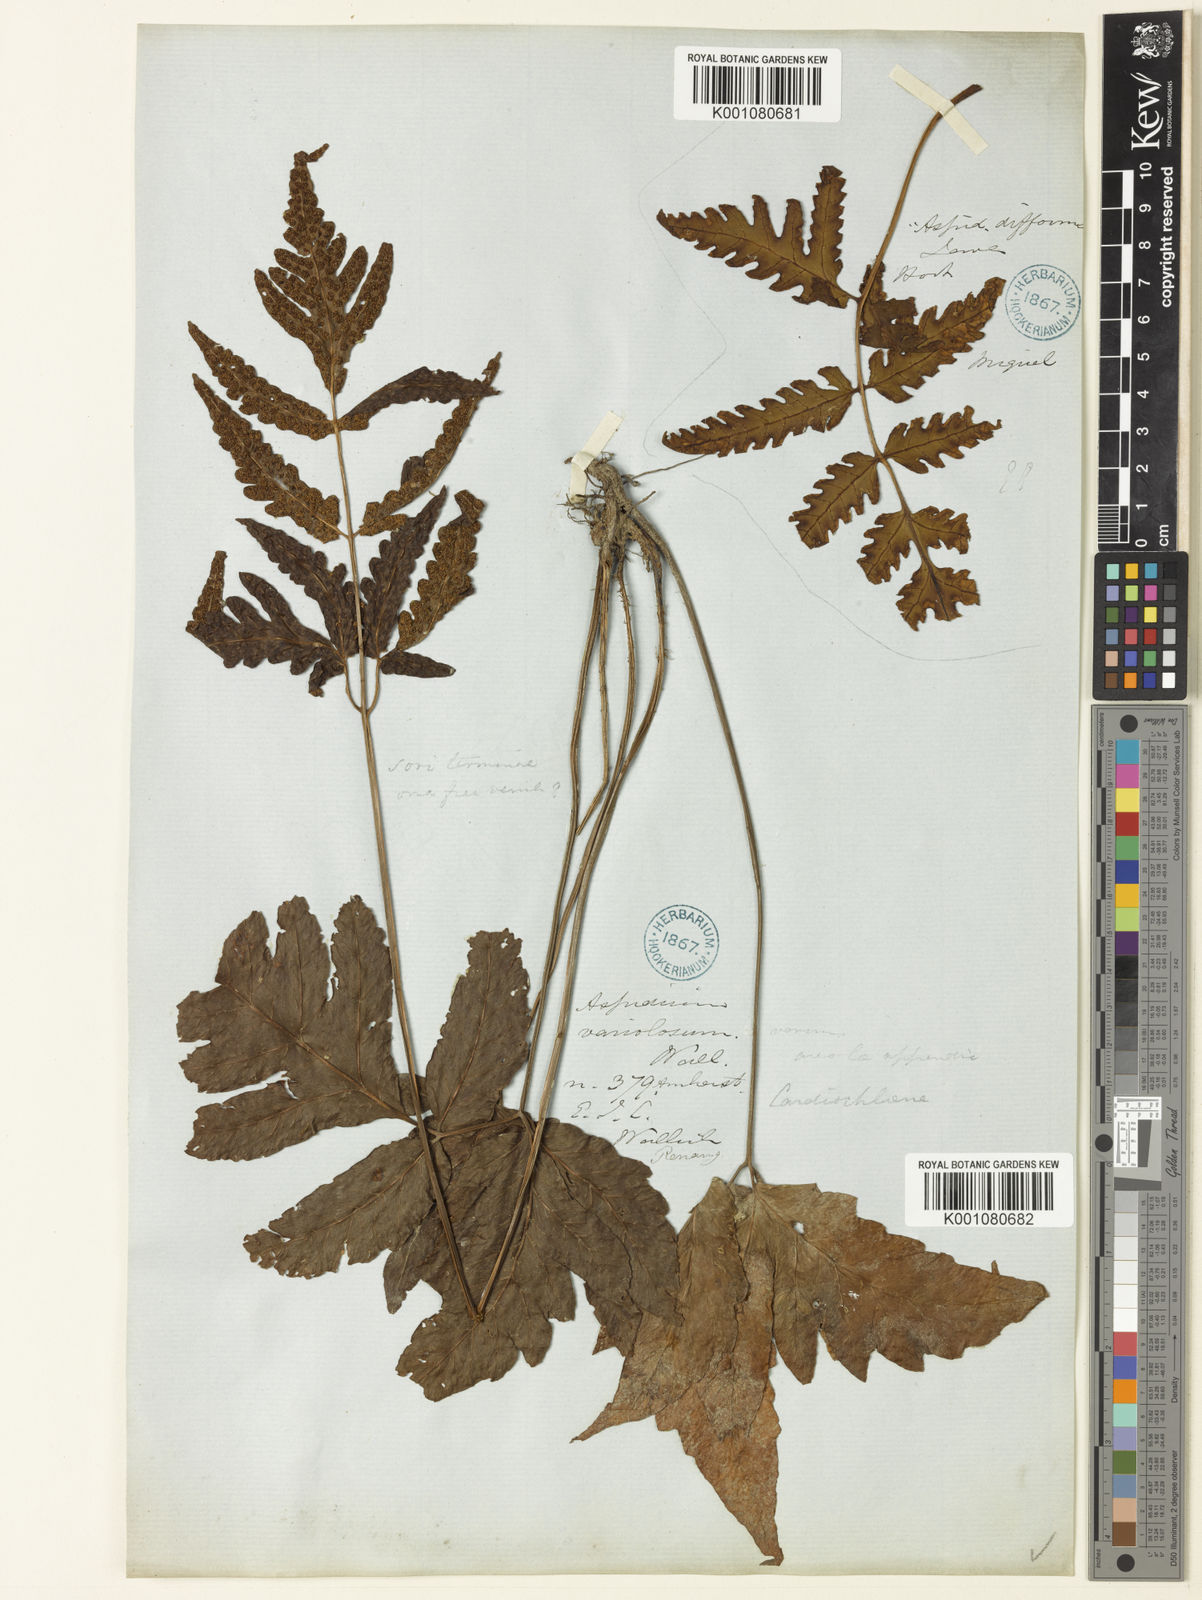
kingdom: Plantae
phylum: Tracheophyta
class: Polypodiopsida
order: Polypodiales
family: Tectariaceae
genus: Tectaria
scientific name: Tectaria
